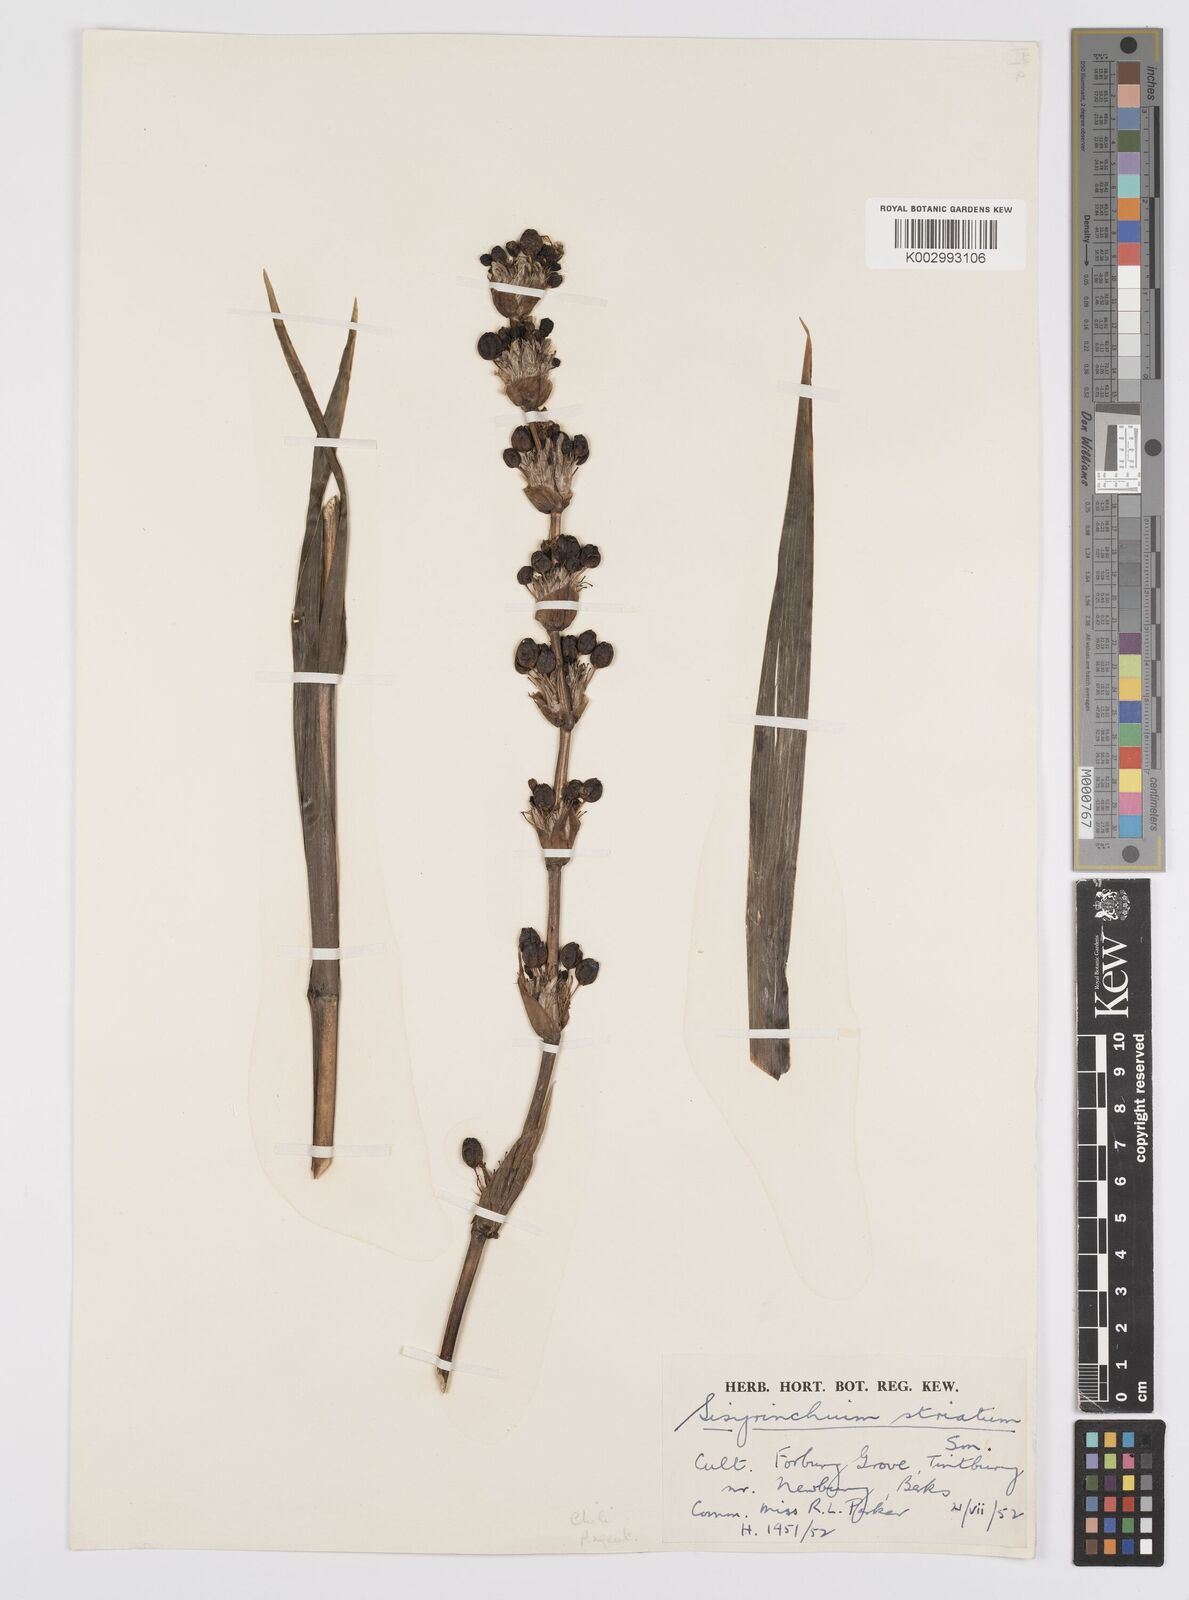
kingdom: Plantae
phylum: Tracheophyta
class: Liliopsida
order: Asparagales
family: Iridaceae
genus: Sisyrinchium
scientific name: Sisyrinchium striatum
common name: Pale yellow-eyed-grass
